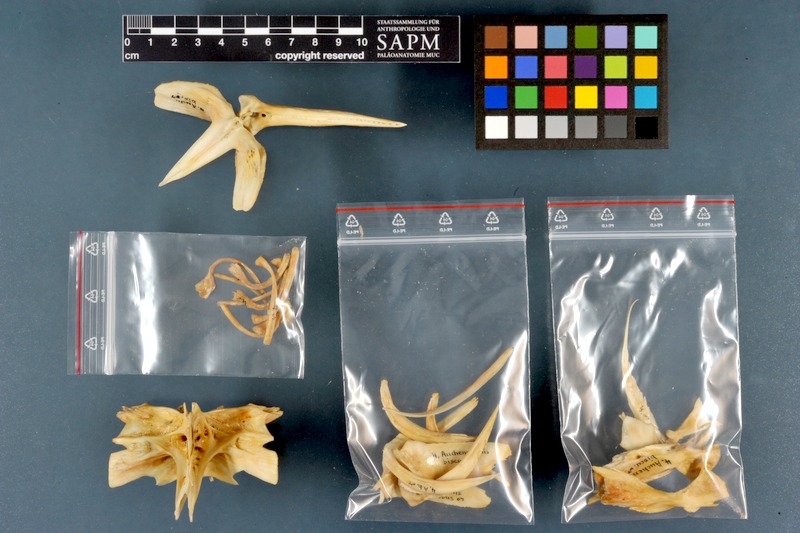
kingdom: Animalia
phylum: Chordata
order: Siluriformes
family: Claroteidae
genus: Auchenoglanis
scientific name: Auchenoglanis biscutatus
